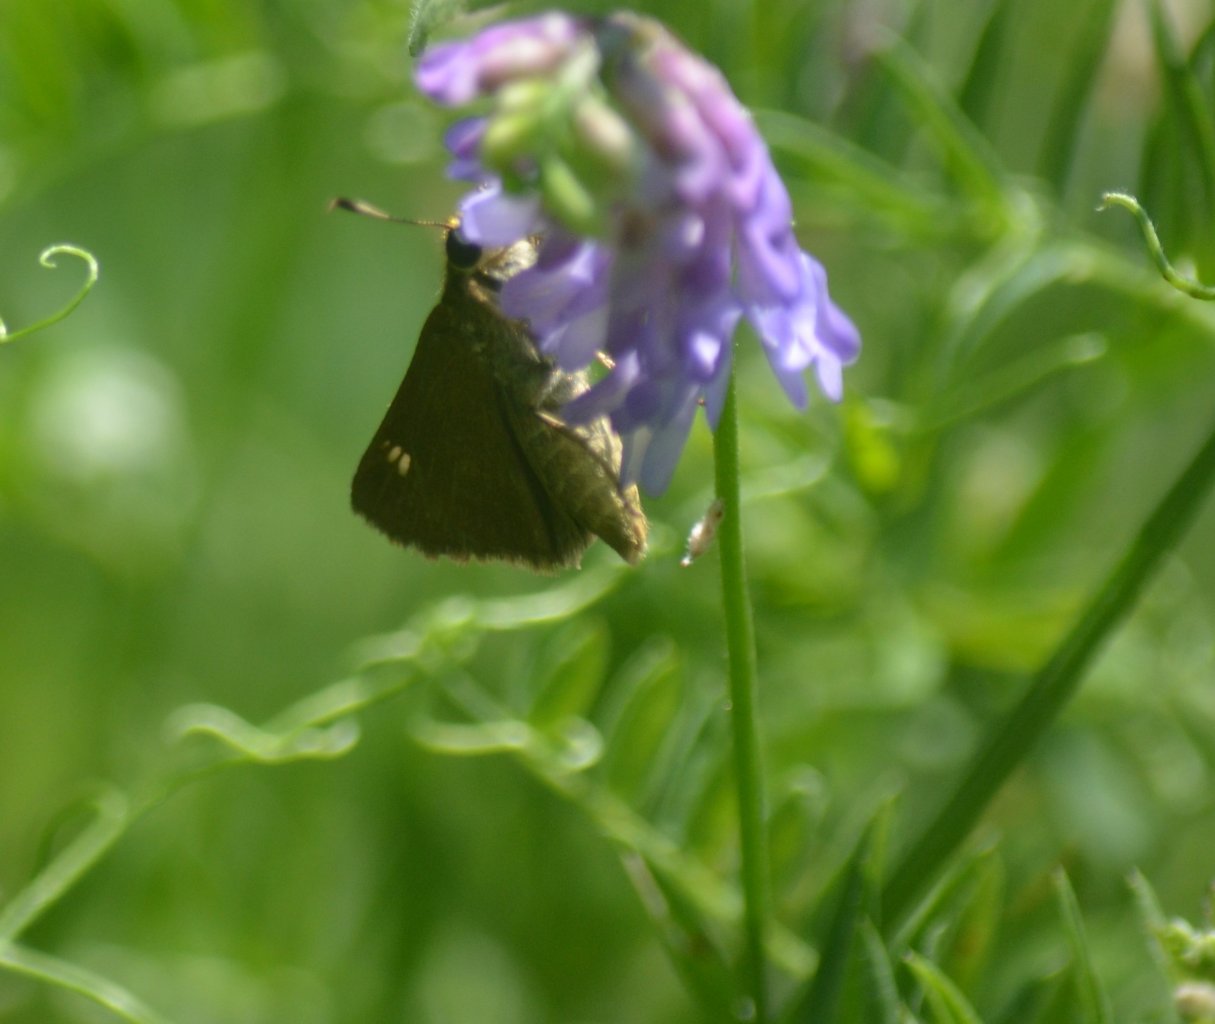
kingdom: Animalia
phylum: Arthropoda
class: Insecta
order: Lepidoptera
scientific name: Lepidoptera
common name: Butterflies
